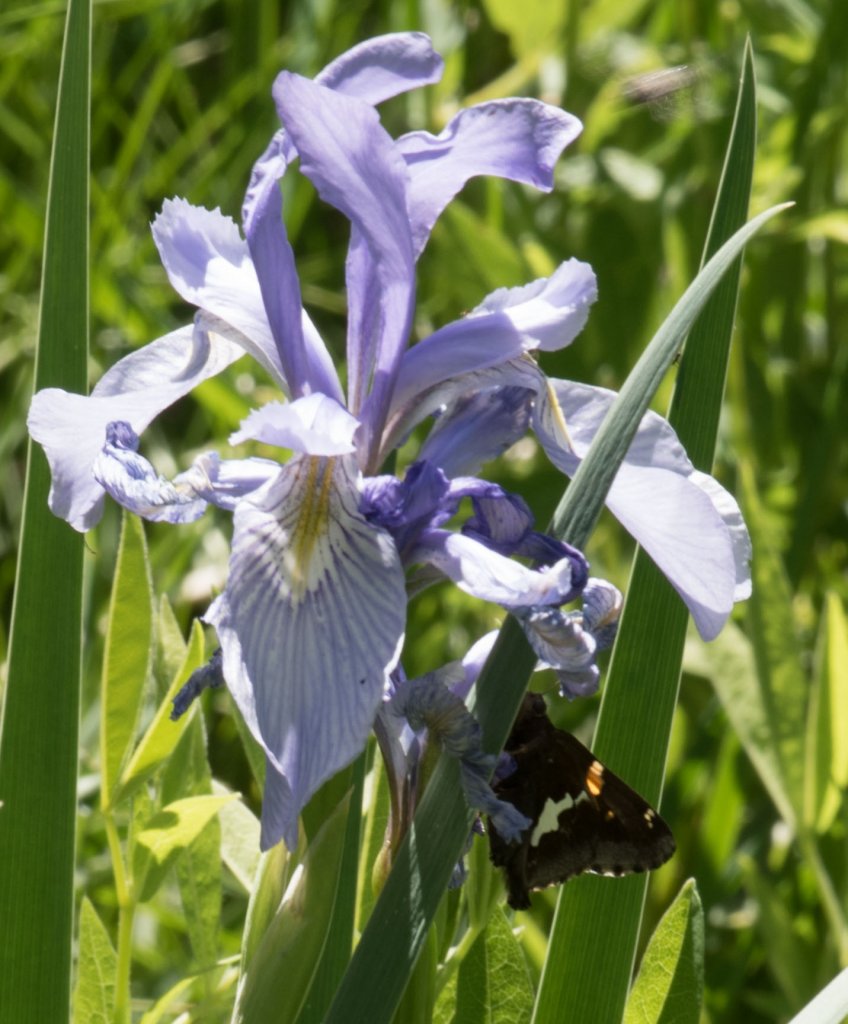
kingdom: Animalia
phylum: Arthropoda
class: Insecta
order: Lepidoptera
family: Hesperiidae
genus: Epargyreus
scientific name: Epargyreus clarus
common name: Silver-spotted Skipper
